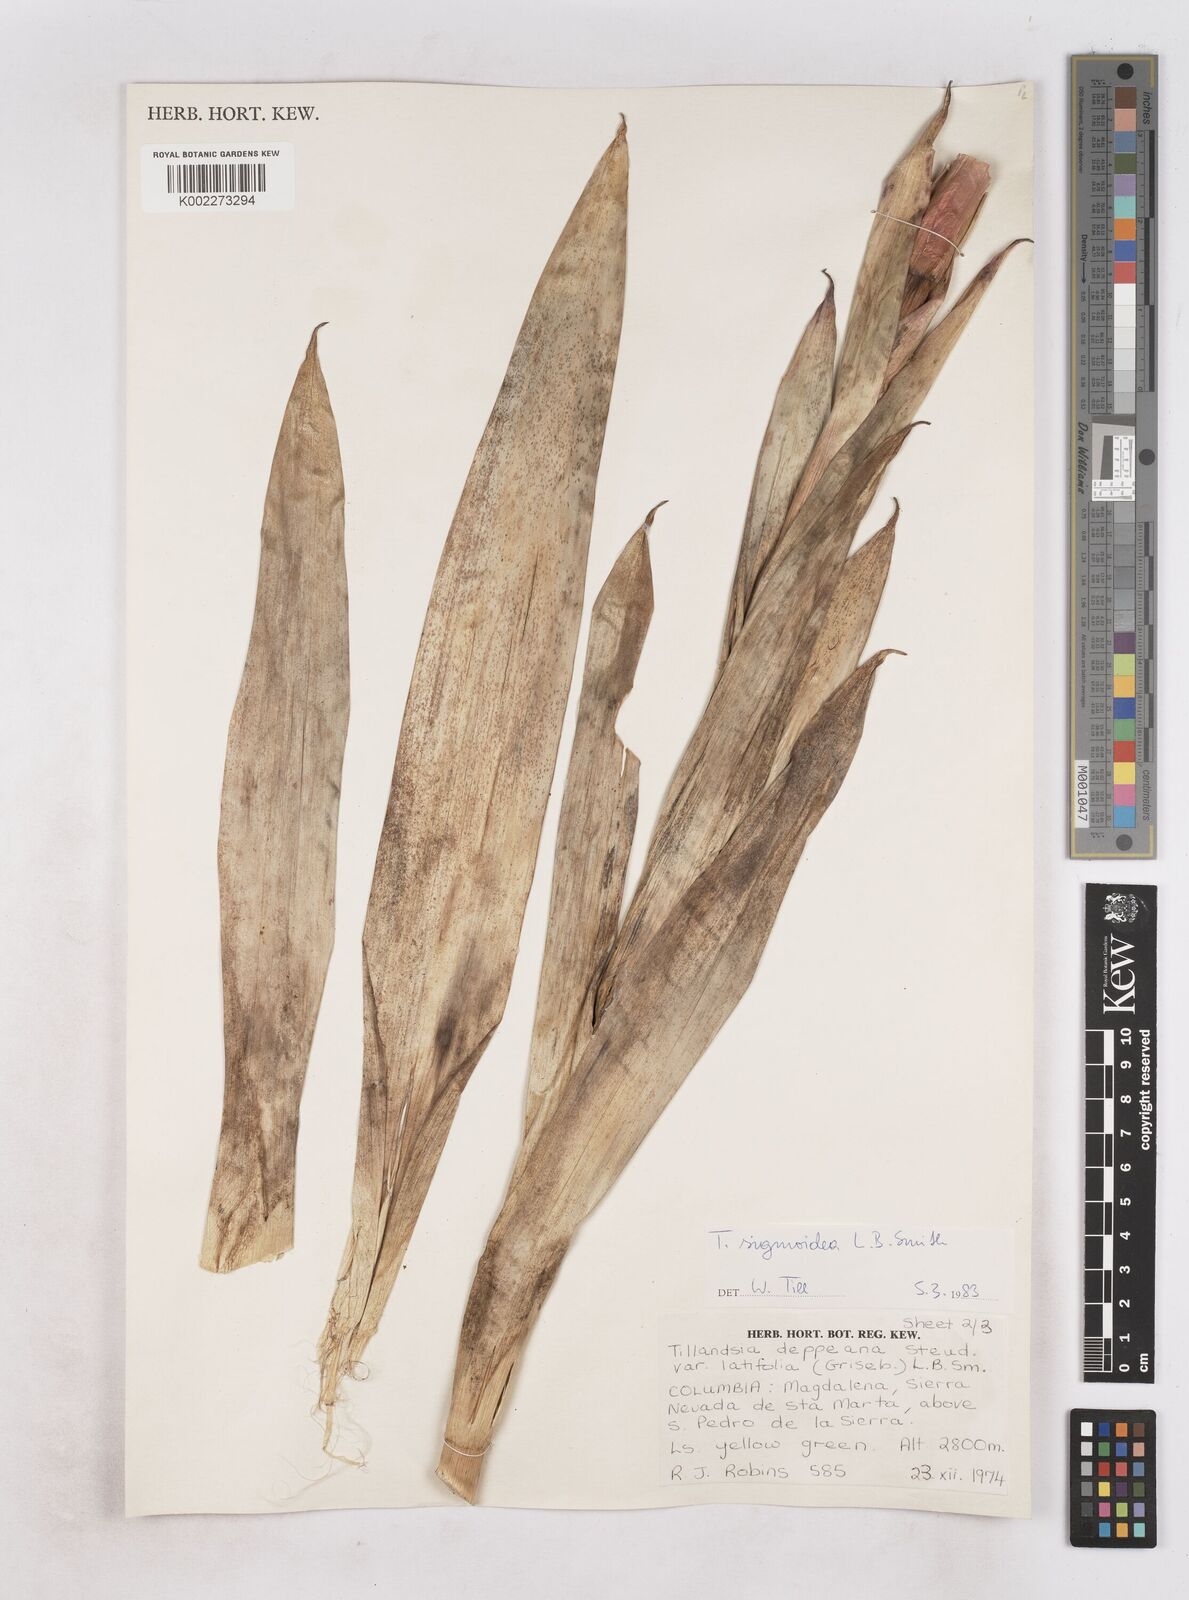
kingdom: Plantae
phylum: Tracheophyta
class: Liliopsida
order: Poales
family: Bromeliaceae
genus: Tillandsia
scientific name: Tillandsia sigmoidea
